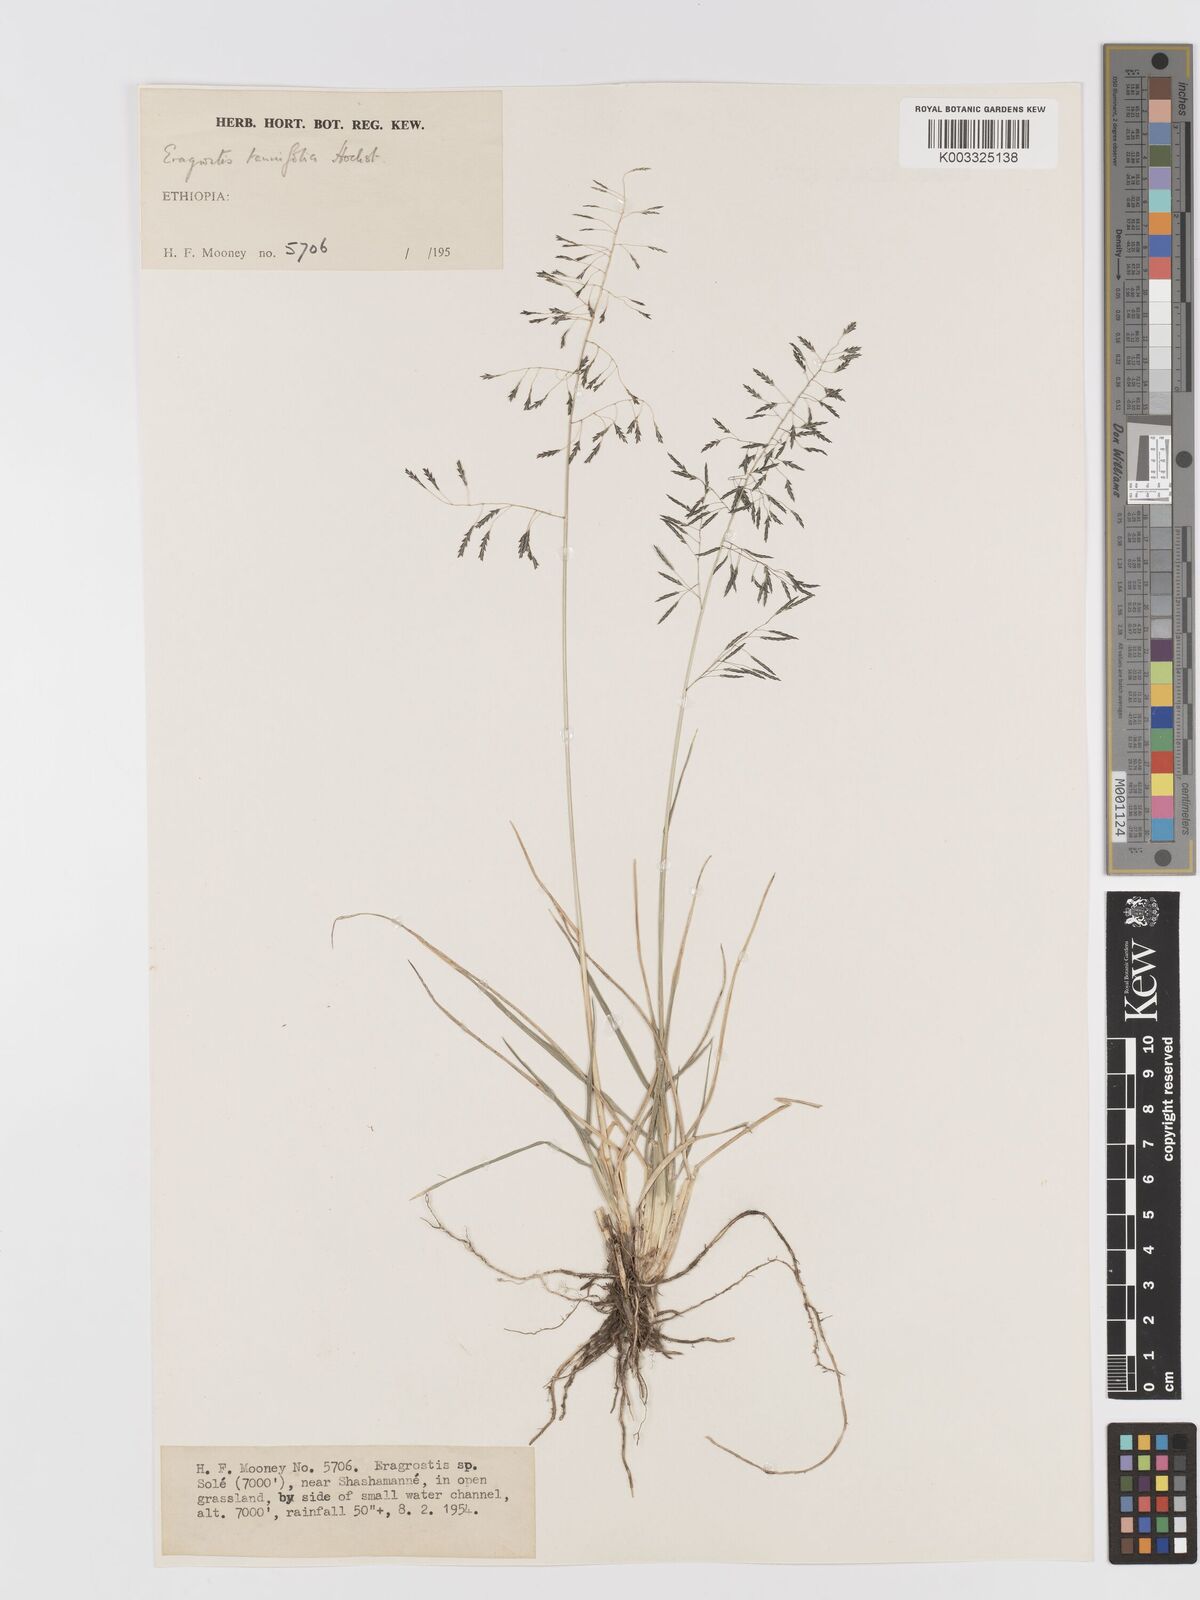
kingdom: Plantae
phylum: Tracheophyta
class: Liliopsida
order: Poales
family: Poaceae
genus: Eragrostis
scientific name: Eragrostis tenuifolia
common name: Elastic grass
